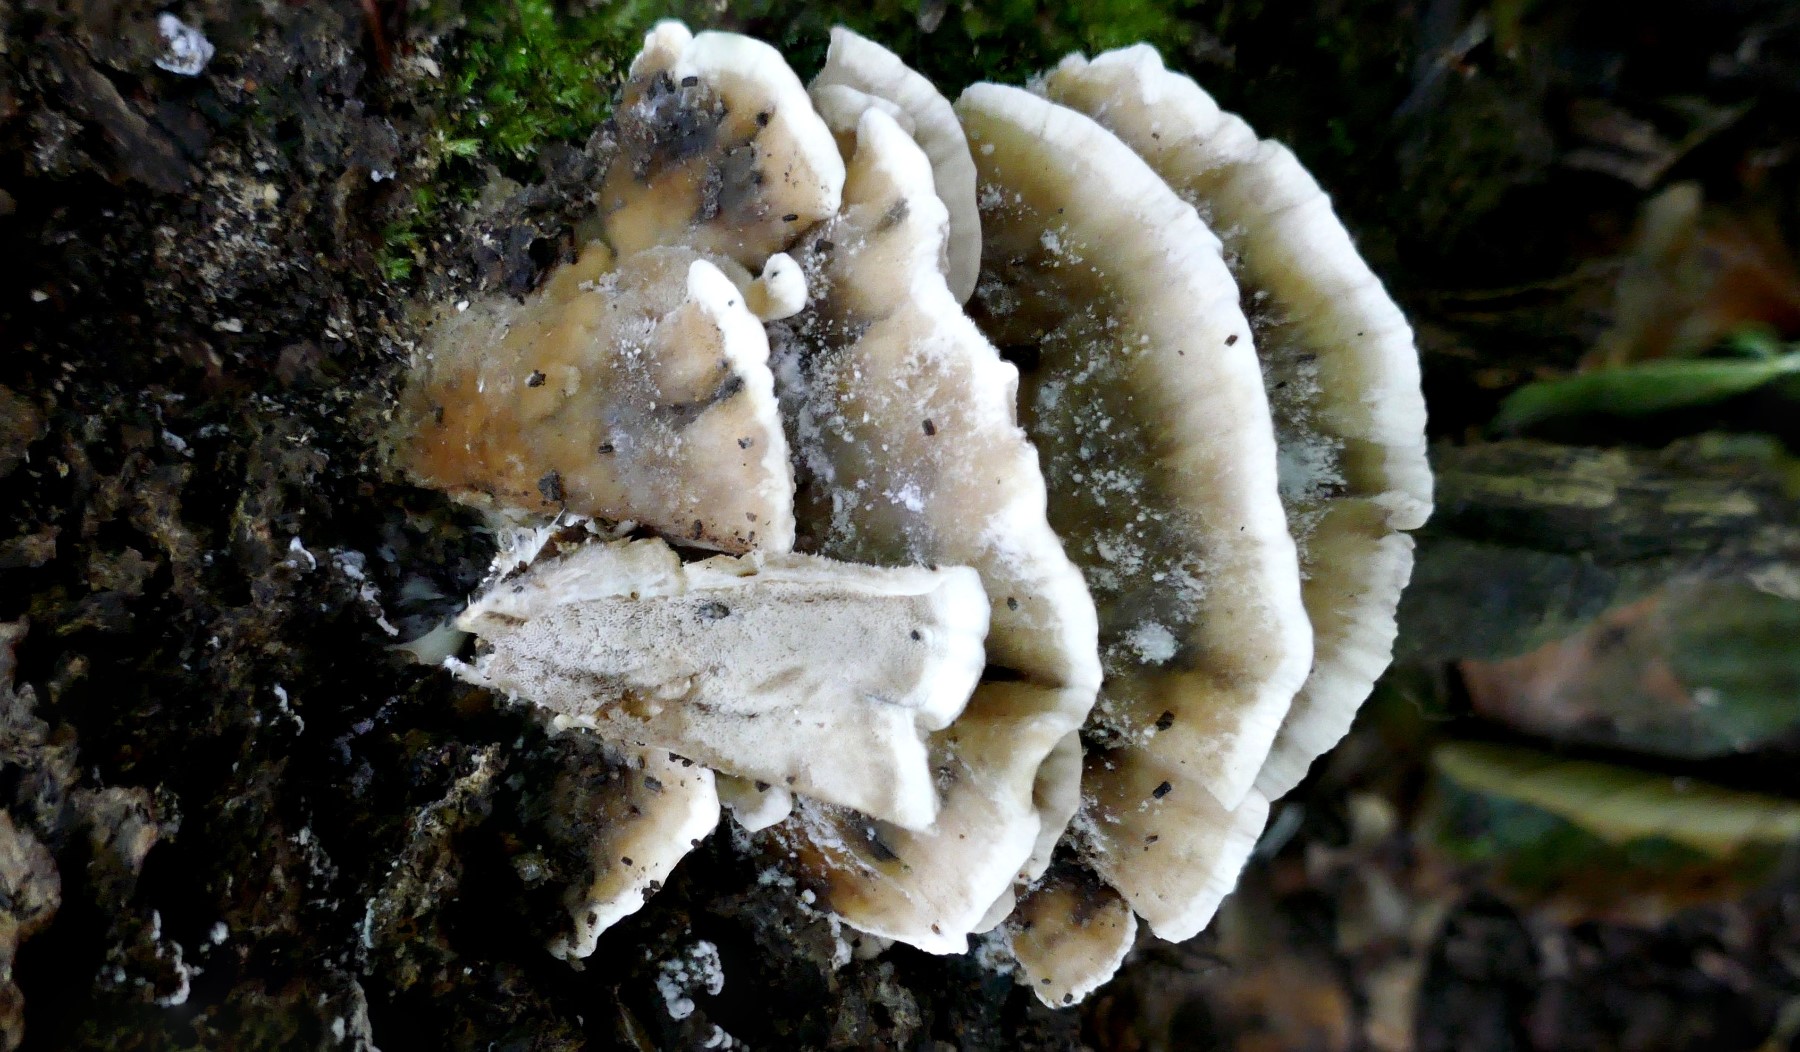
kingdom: Fungi
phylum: Basidiomycota
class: Agaricomycetes
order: Polyporales
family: Phanerochaetaceae
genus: Bjerkandera
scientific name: Bjerkandera adusta
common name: sveden sodporesvamp
